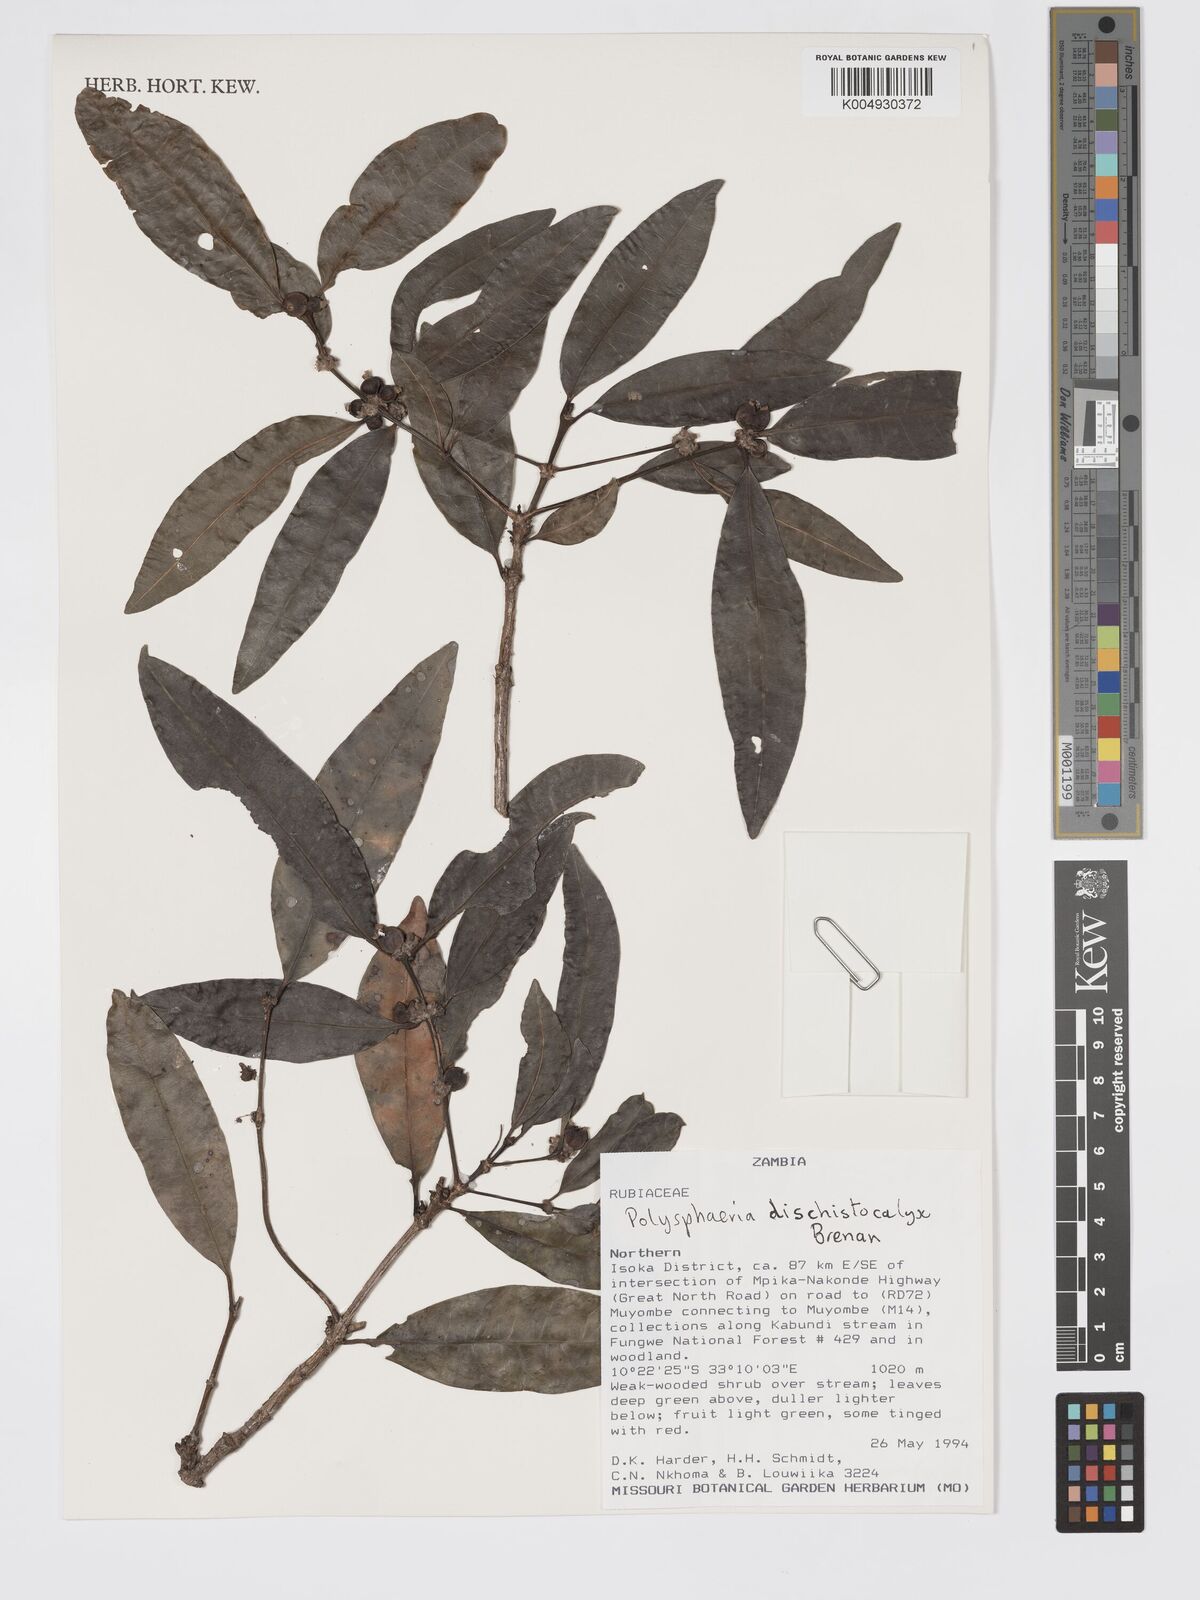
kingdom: Plantae
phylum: Tracheophyta
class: Magnoliopsida
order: Gentianales
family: Rubiaceae
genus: Polysphaeria
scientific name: Polysphaeria dischistocalyx
